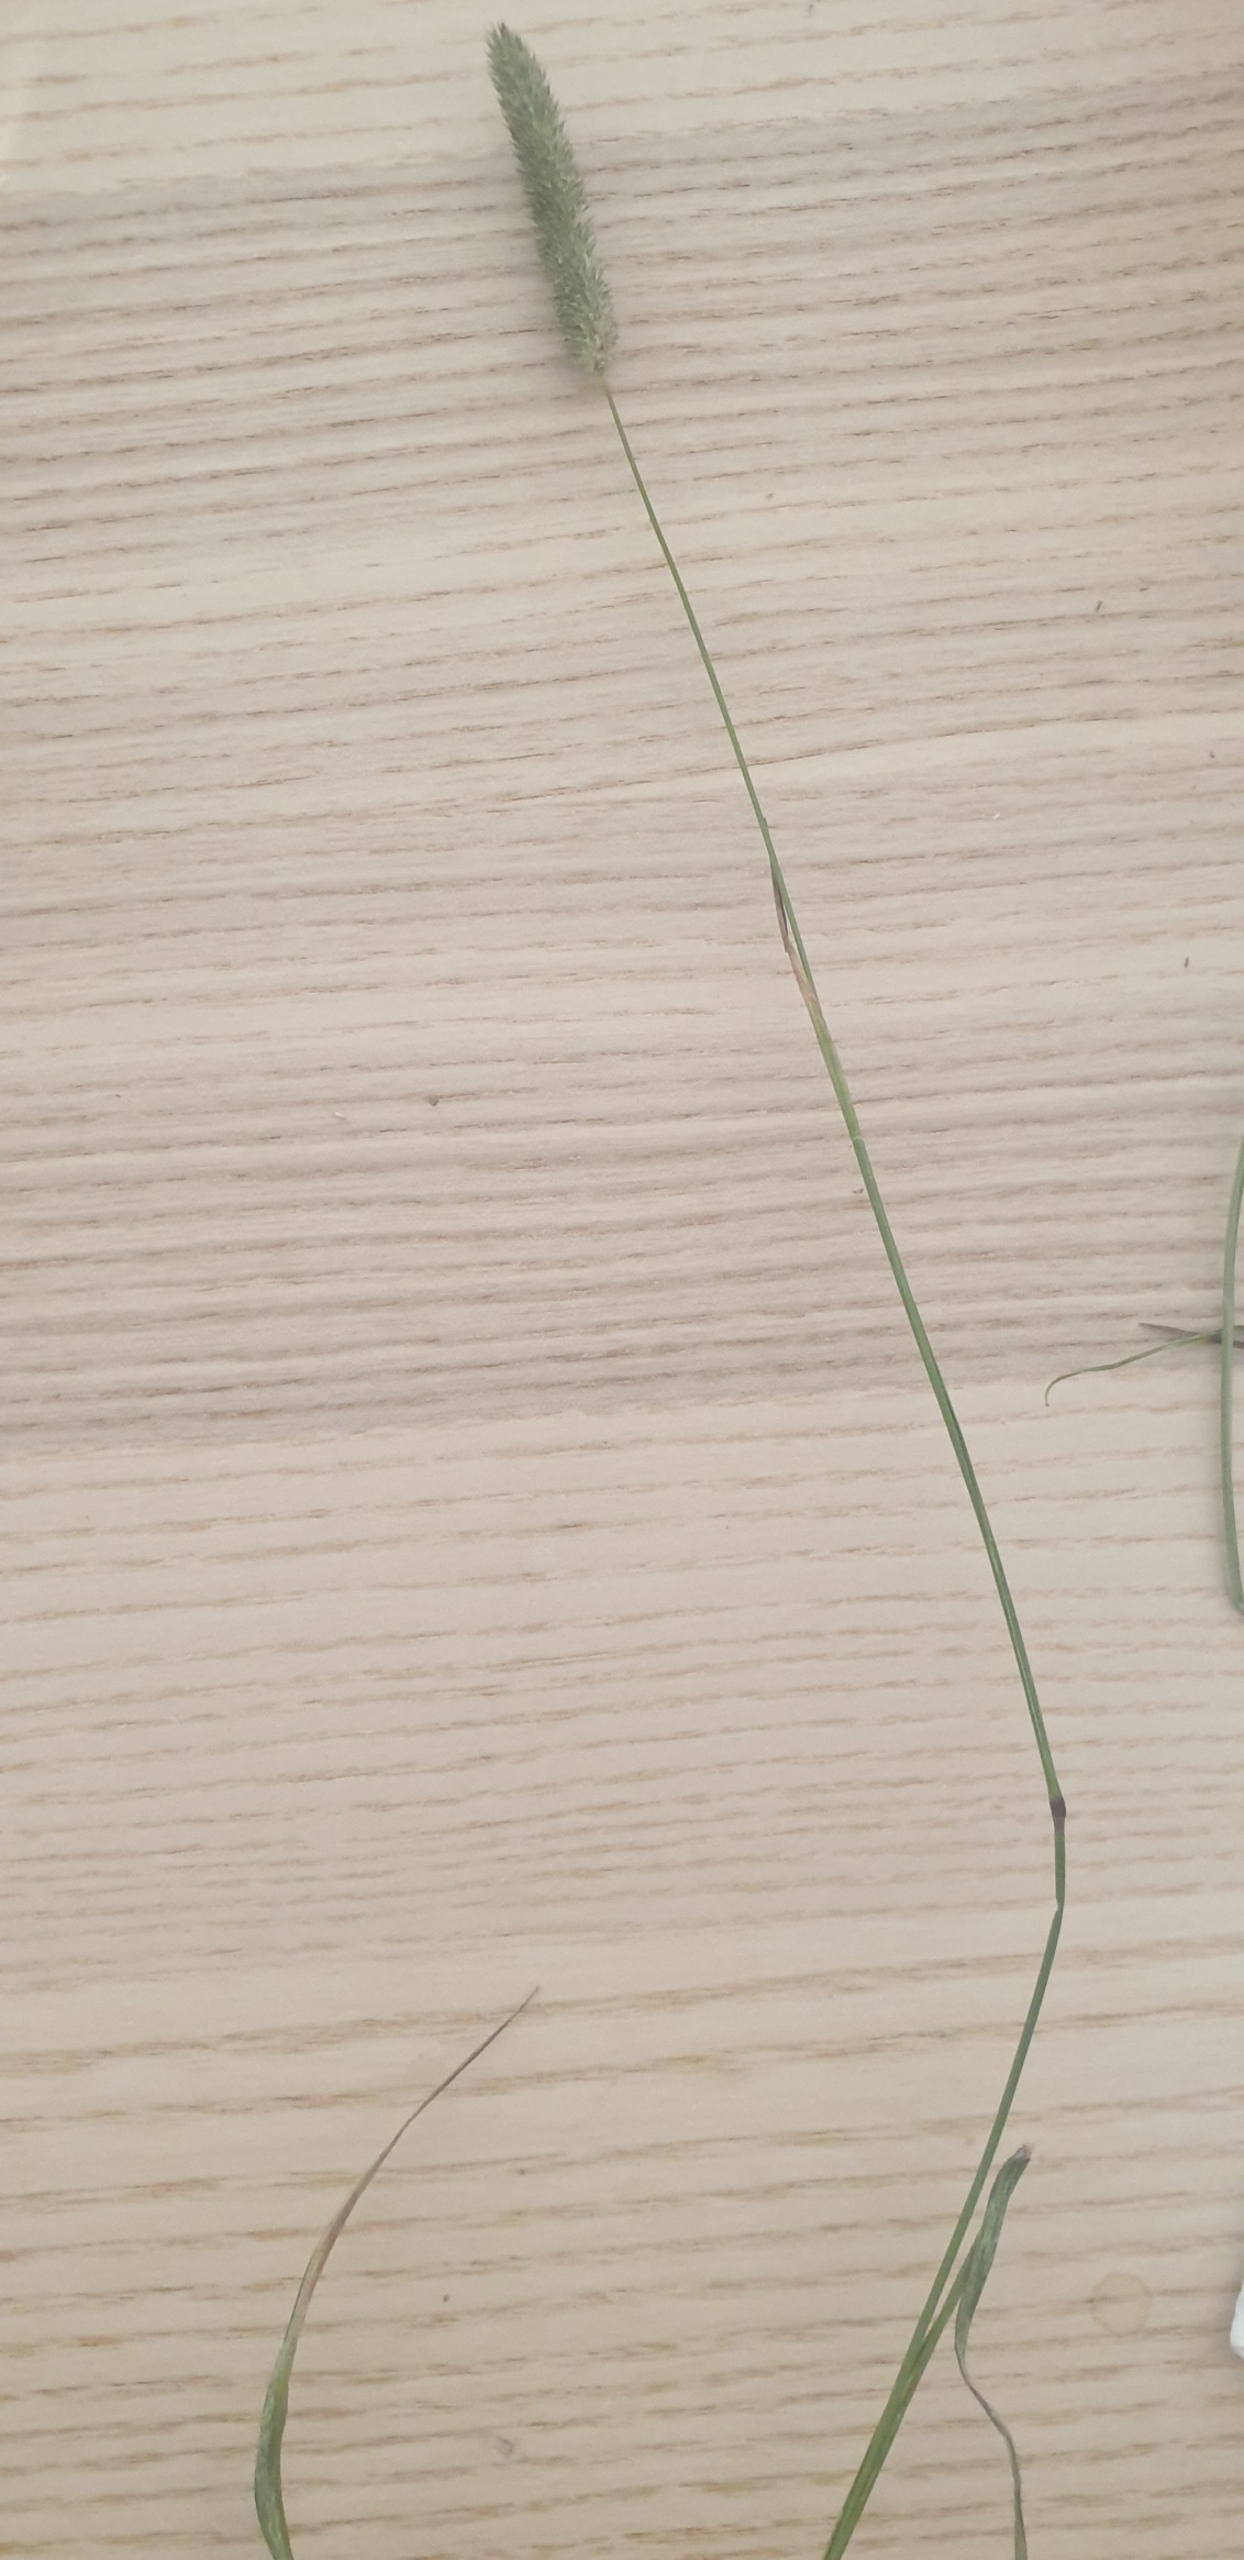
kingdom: Plantae
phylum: Tracheophyta
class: Liliopsida
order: Poales
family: Poaceae
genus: Phleum
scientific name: Phleum pratense
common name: Eng-rottehale
